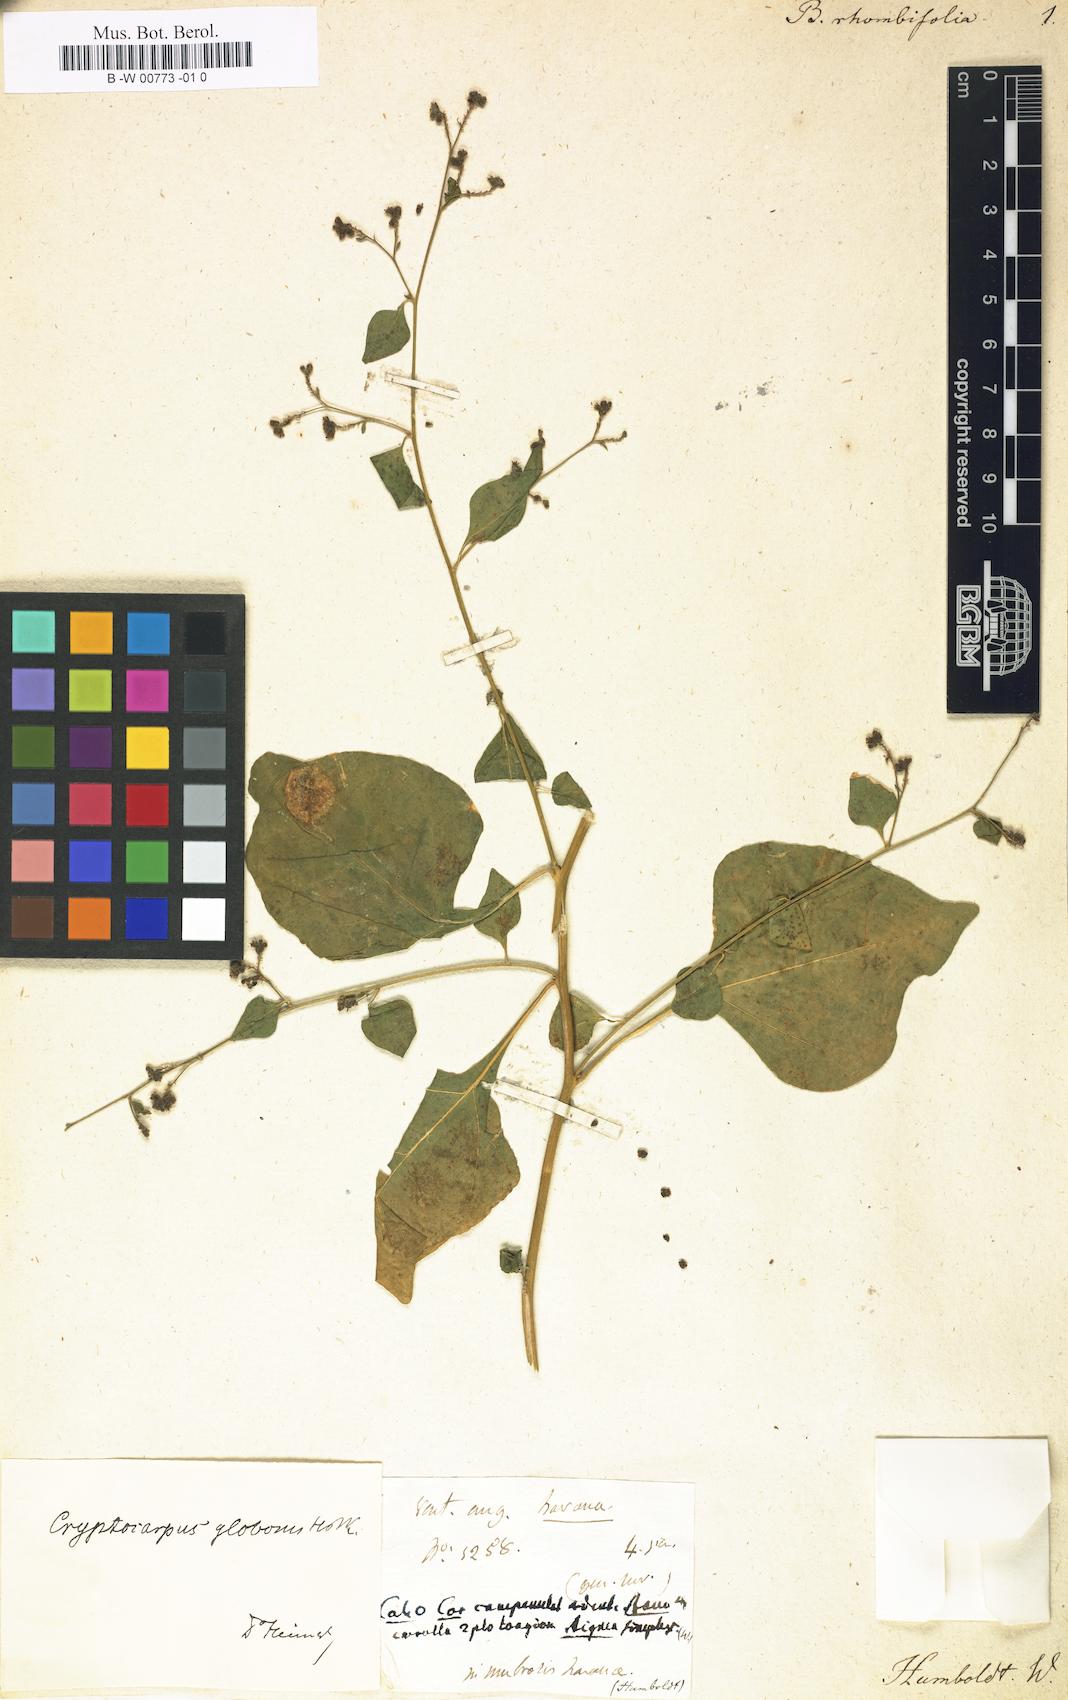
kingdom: Plantae
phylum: Tracheophyta
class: Magnoliopsida
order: Caryophyllales
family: Nyctaginaceae
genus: Boerhavia
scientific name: Boerhavia
